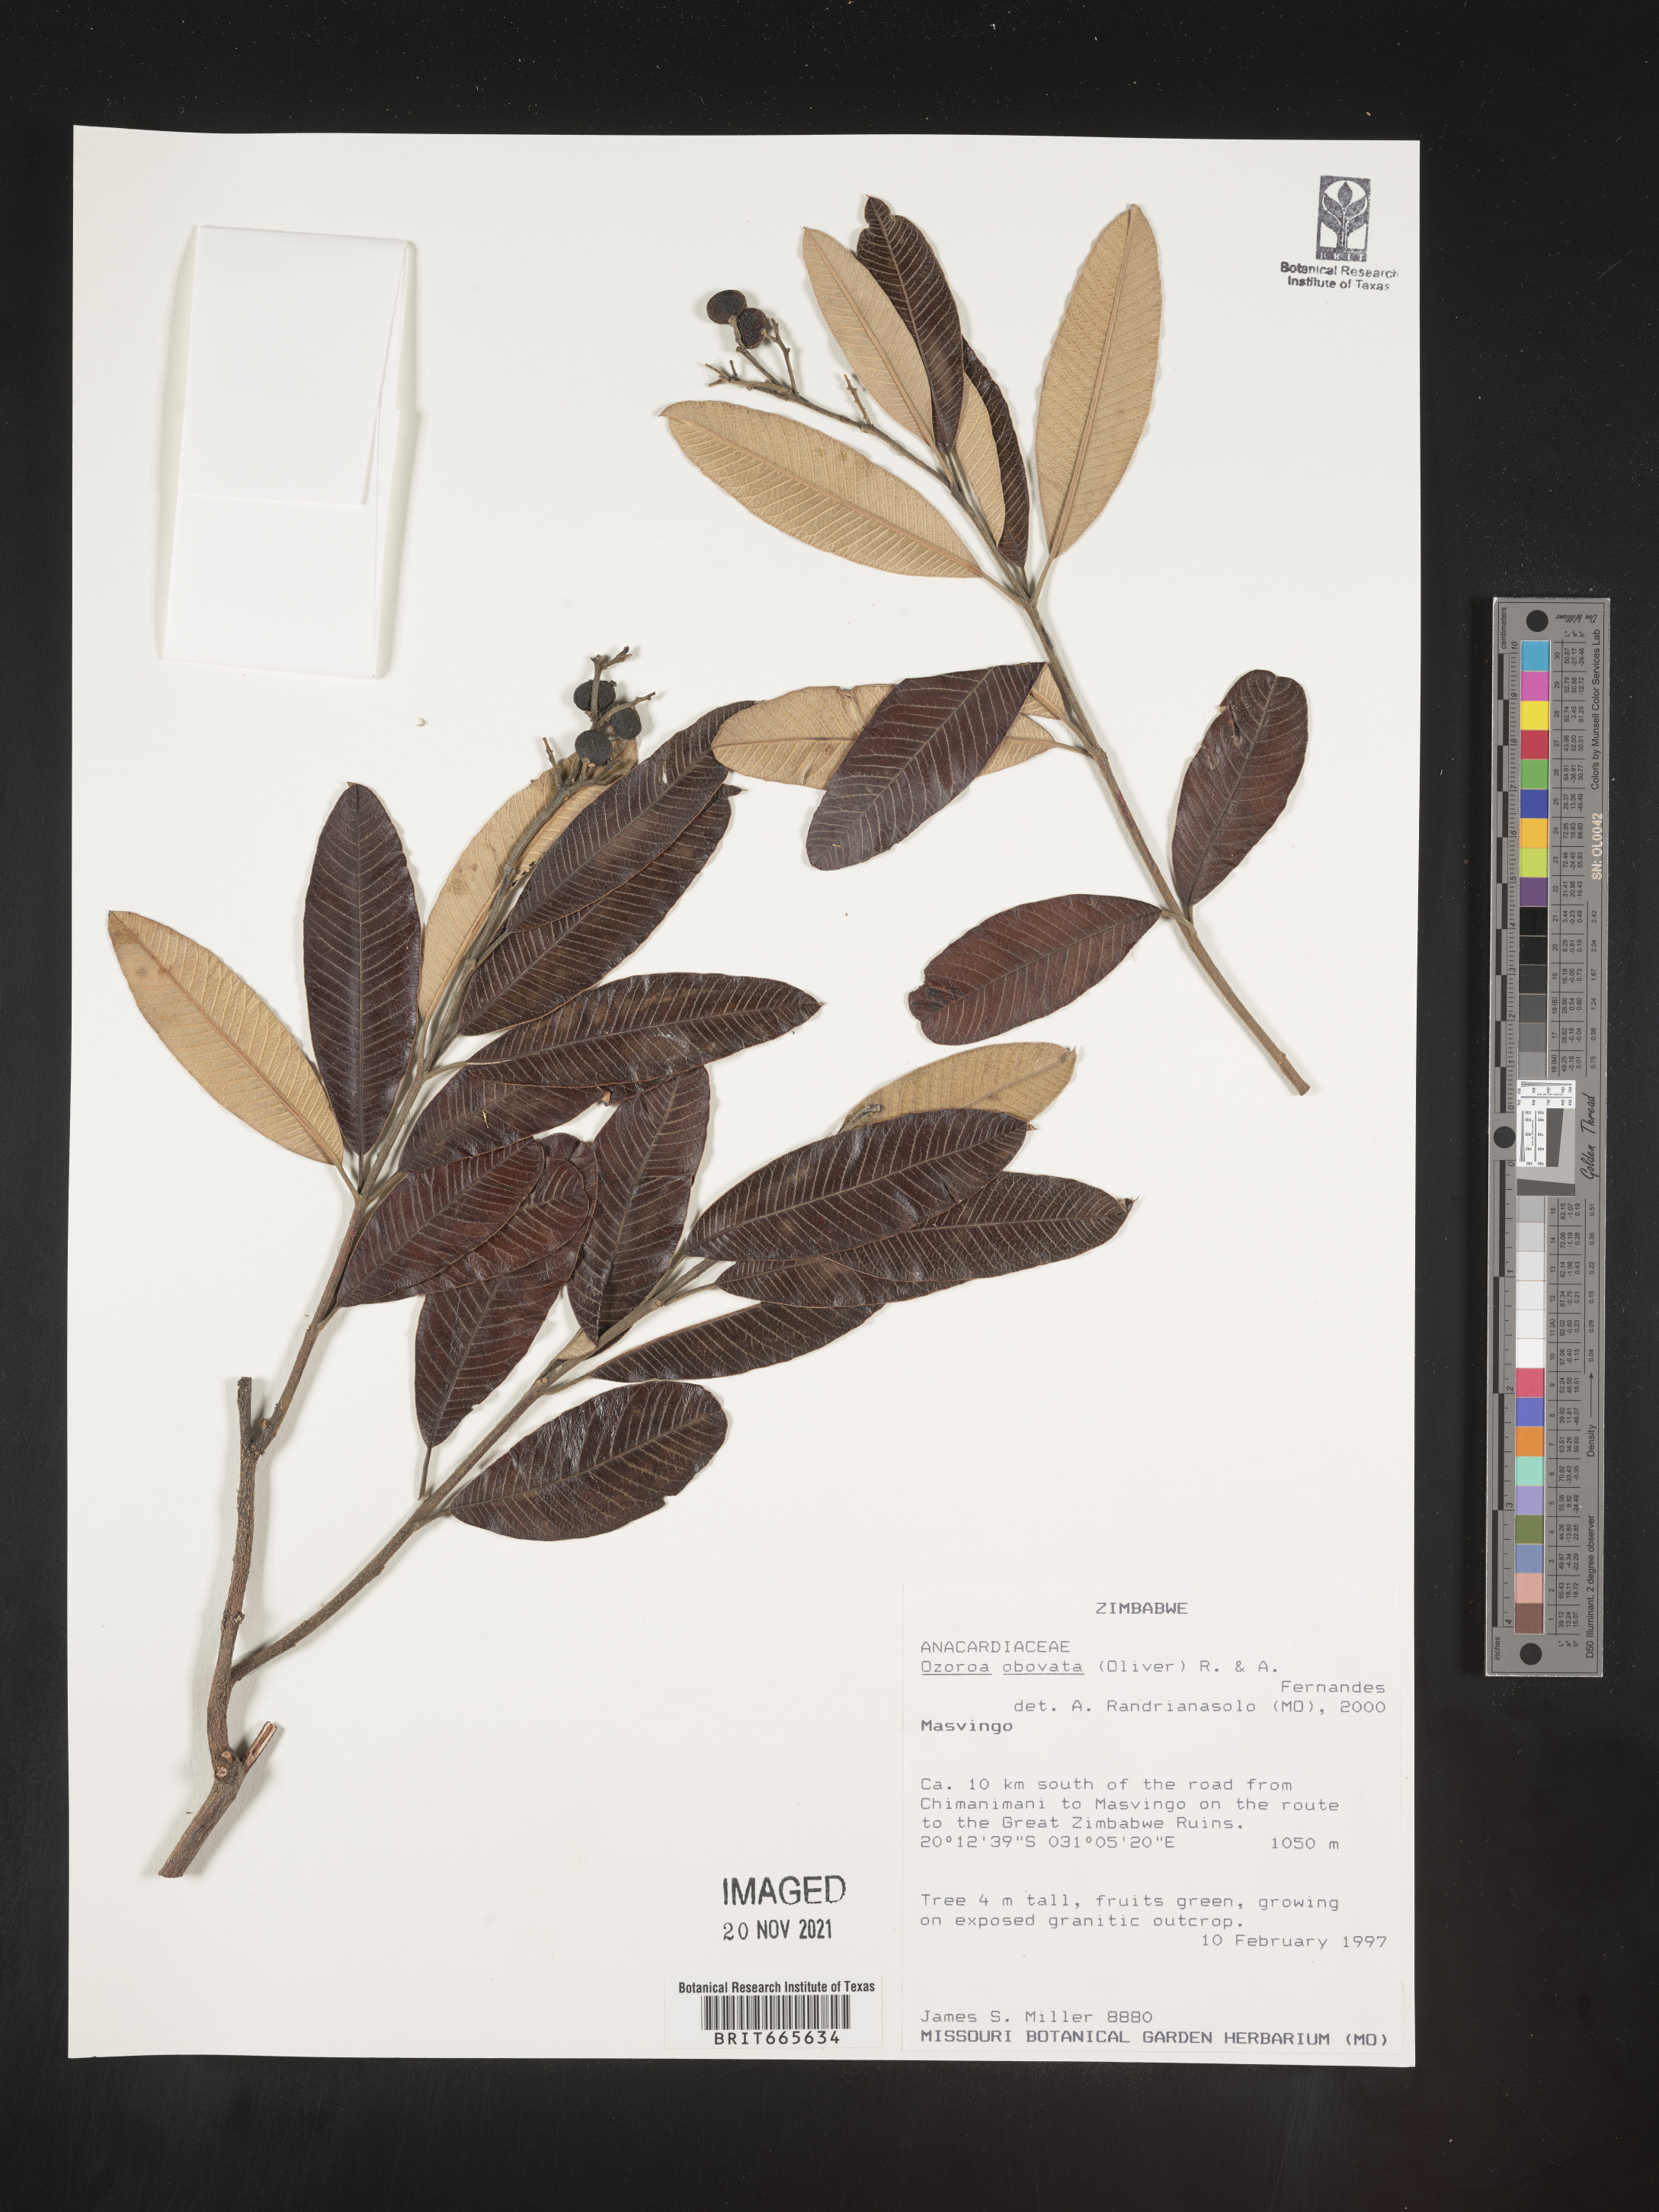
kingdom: Plantae
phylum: Tracheophyta
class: Magnoliopsida
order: Sapindales
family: Anacardiaceae
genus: Ozoroa
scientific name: Ozoroa
